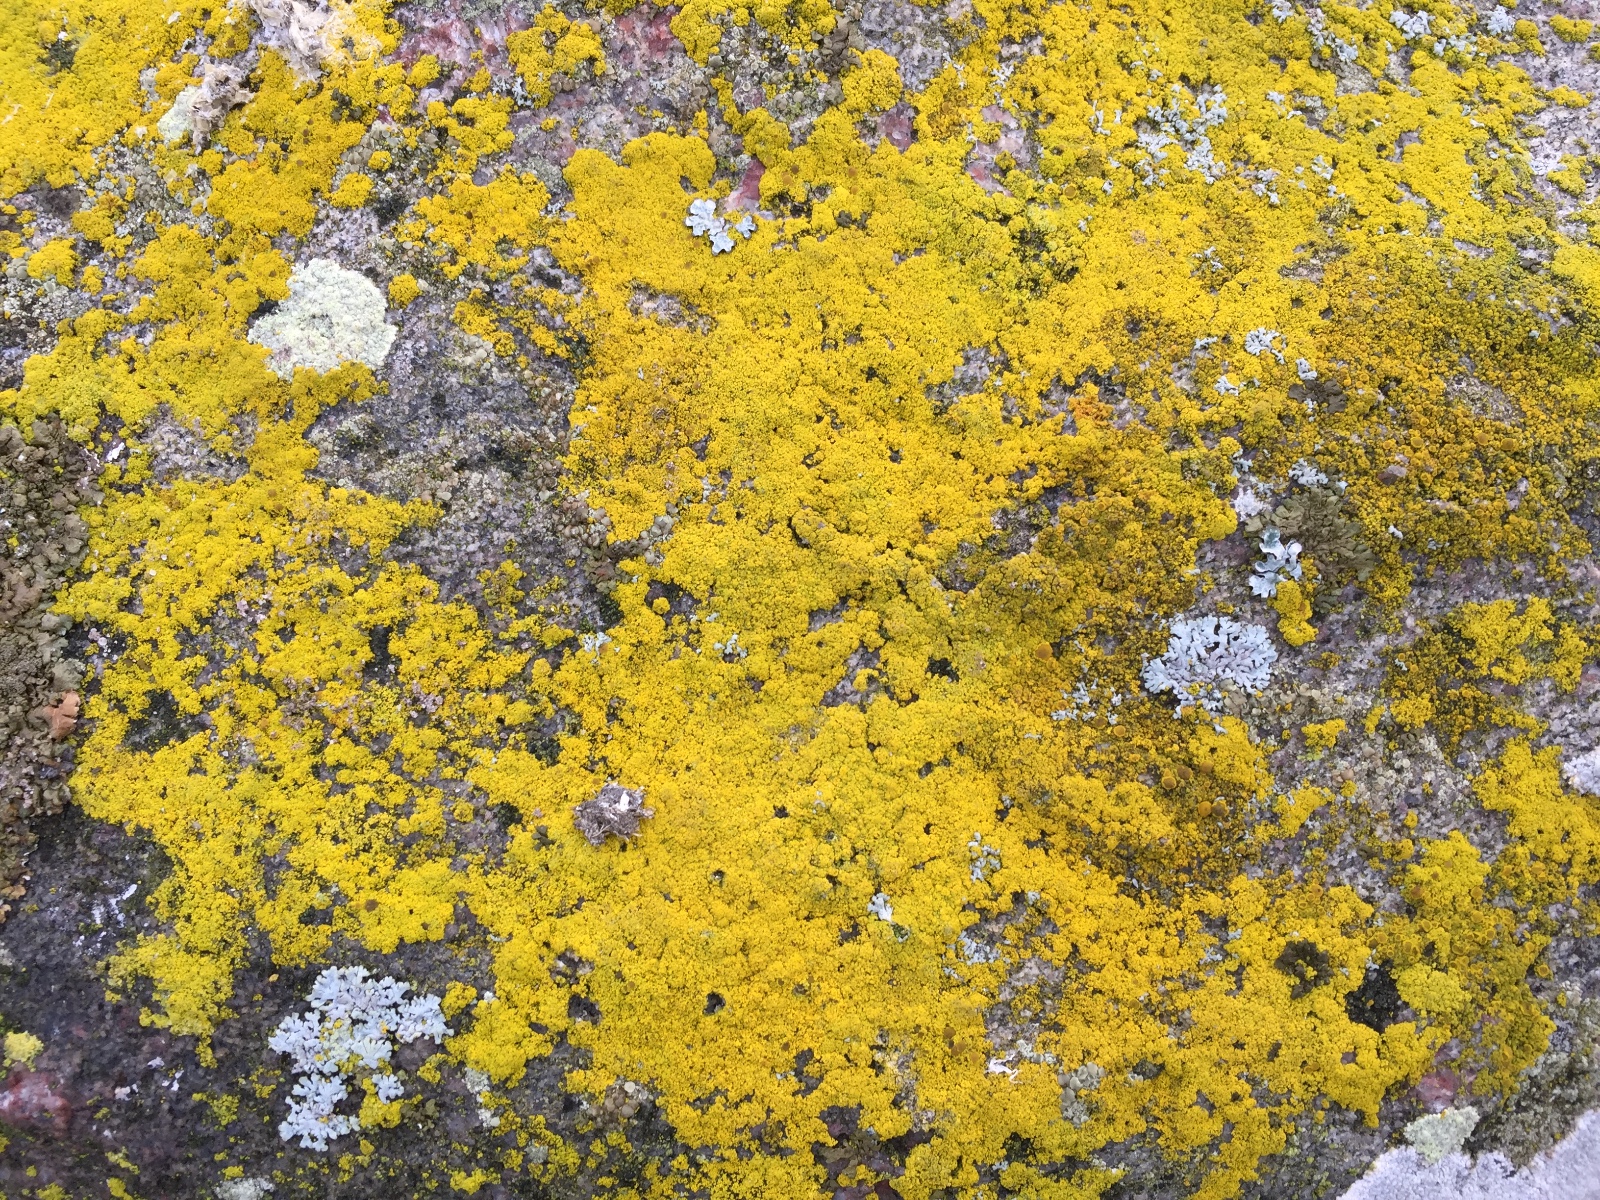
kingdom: Fungi
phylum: Ascomycota
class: Candelariomycetes
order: Candelariales
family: Candelariaceae
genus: Candelariella
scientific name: Candelariella vitellina
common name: almindelig æggeblommelav
